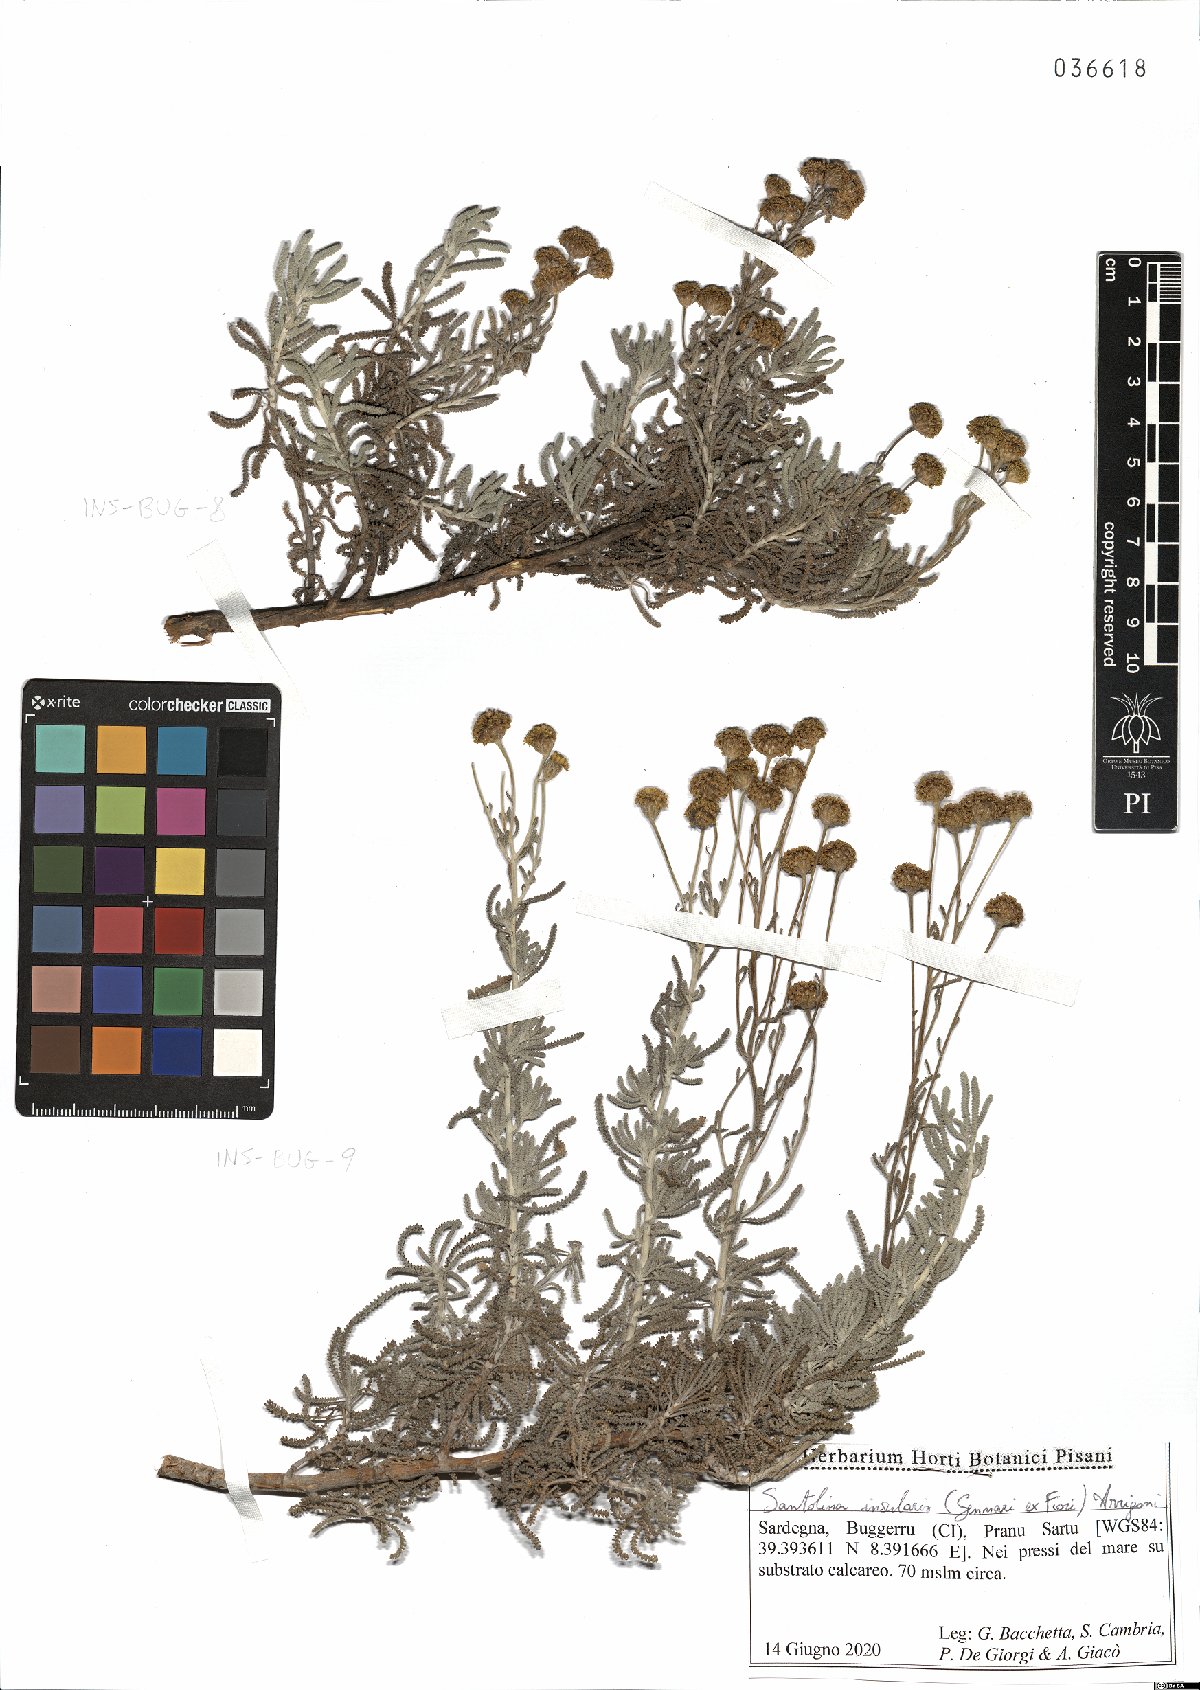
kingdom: Plantae
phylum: Tracheophyta
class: Magnoliopsida
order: Asterales
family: Asteraceae
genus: Santolina
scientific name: Santolina insularis
